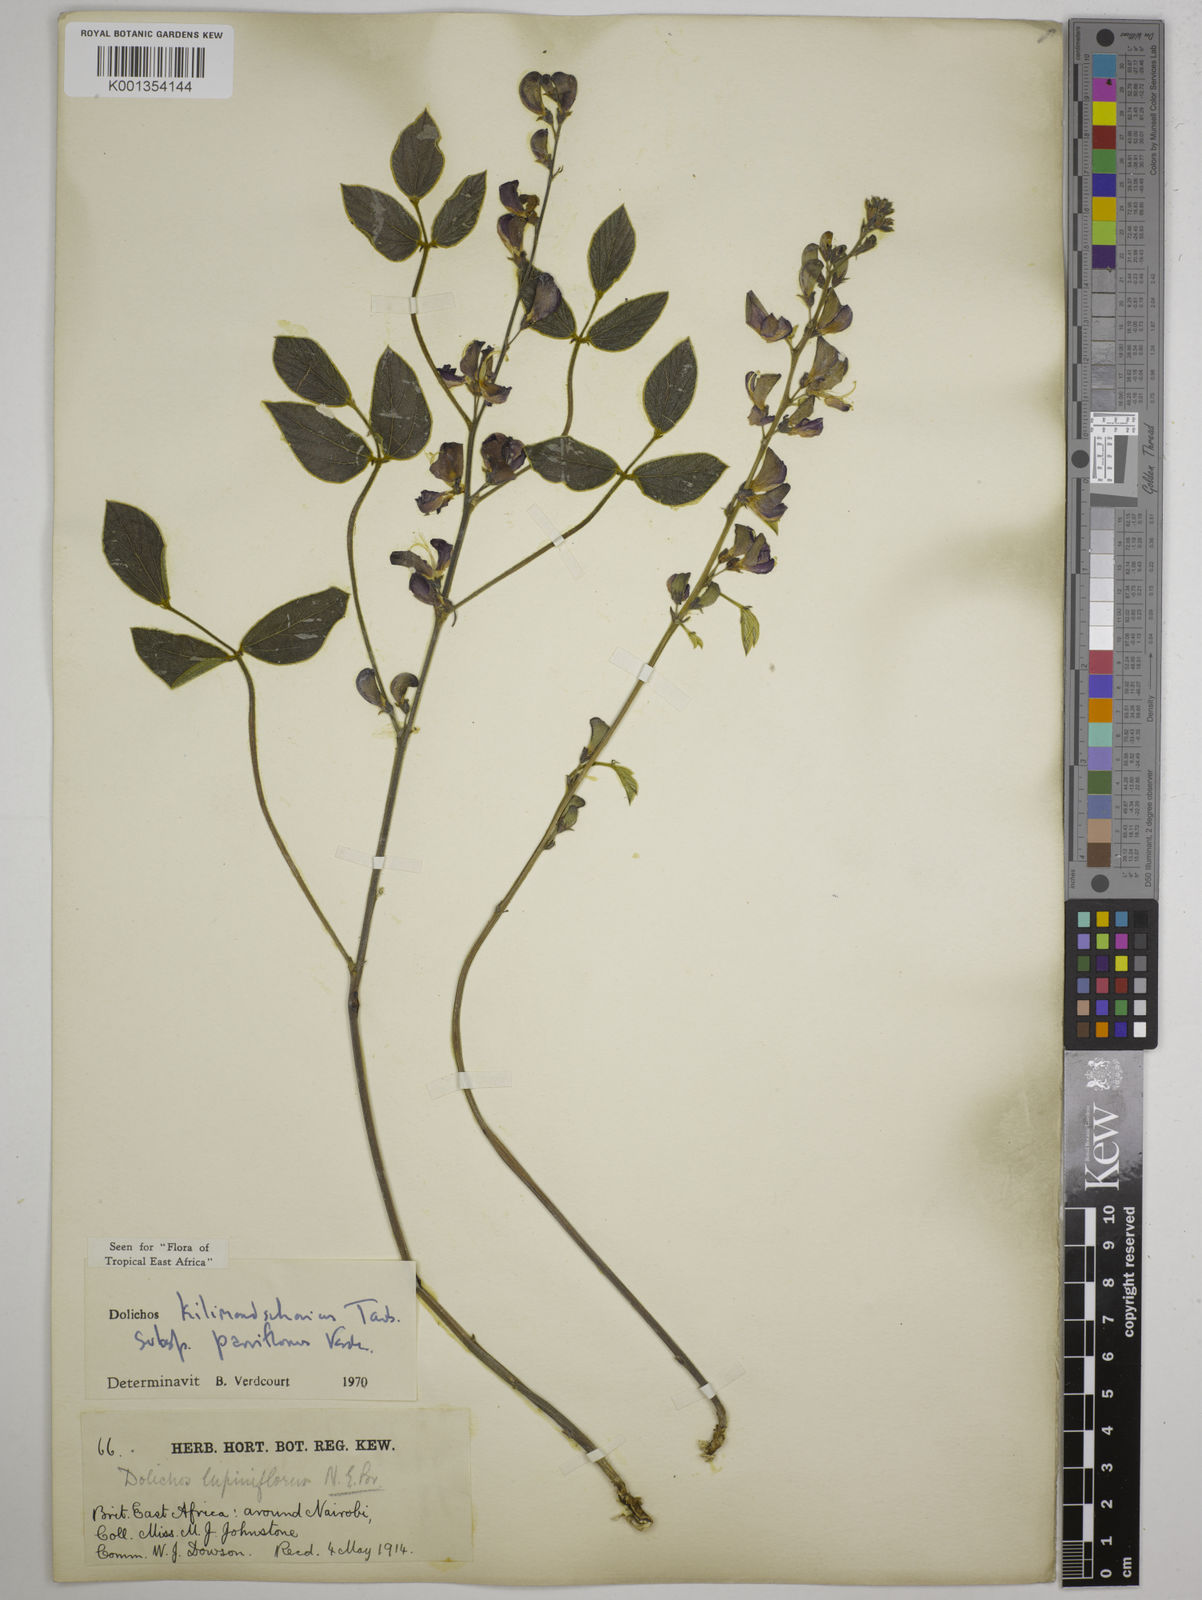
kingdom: Plantae
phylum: Tracheophyta
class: Magnoliopsida
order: Fabales
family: Fabaceae
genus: Dolichos
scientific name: Dolichos
